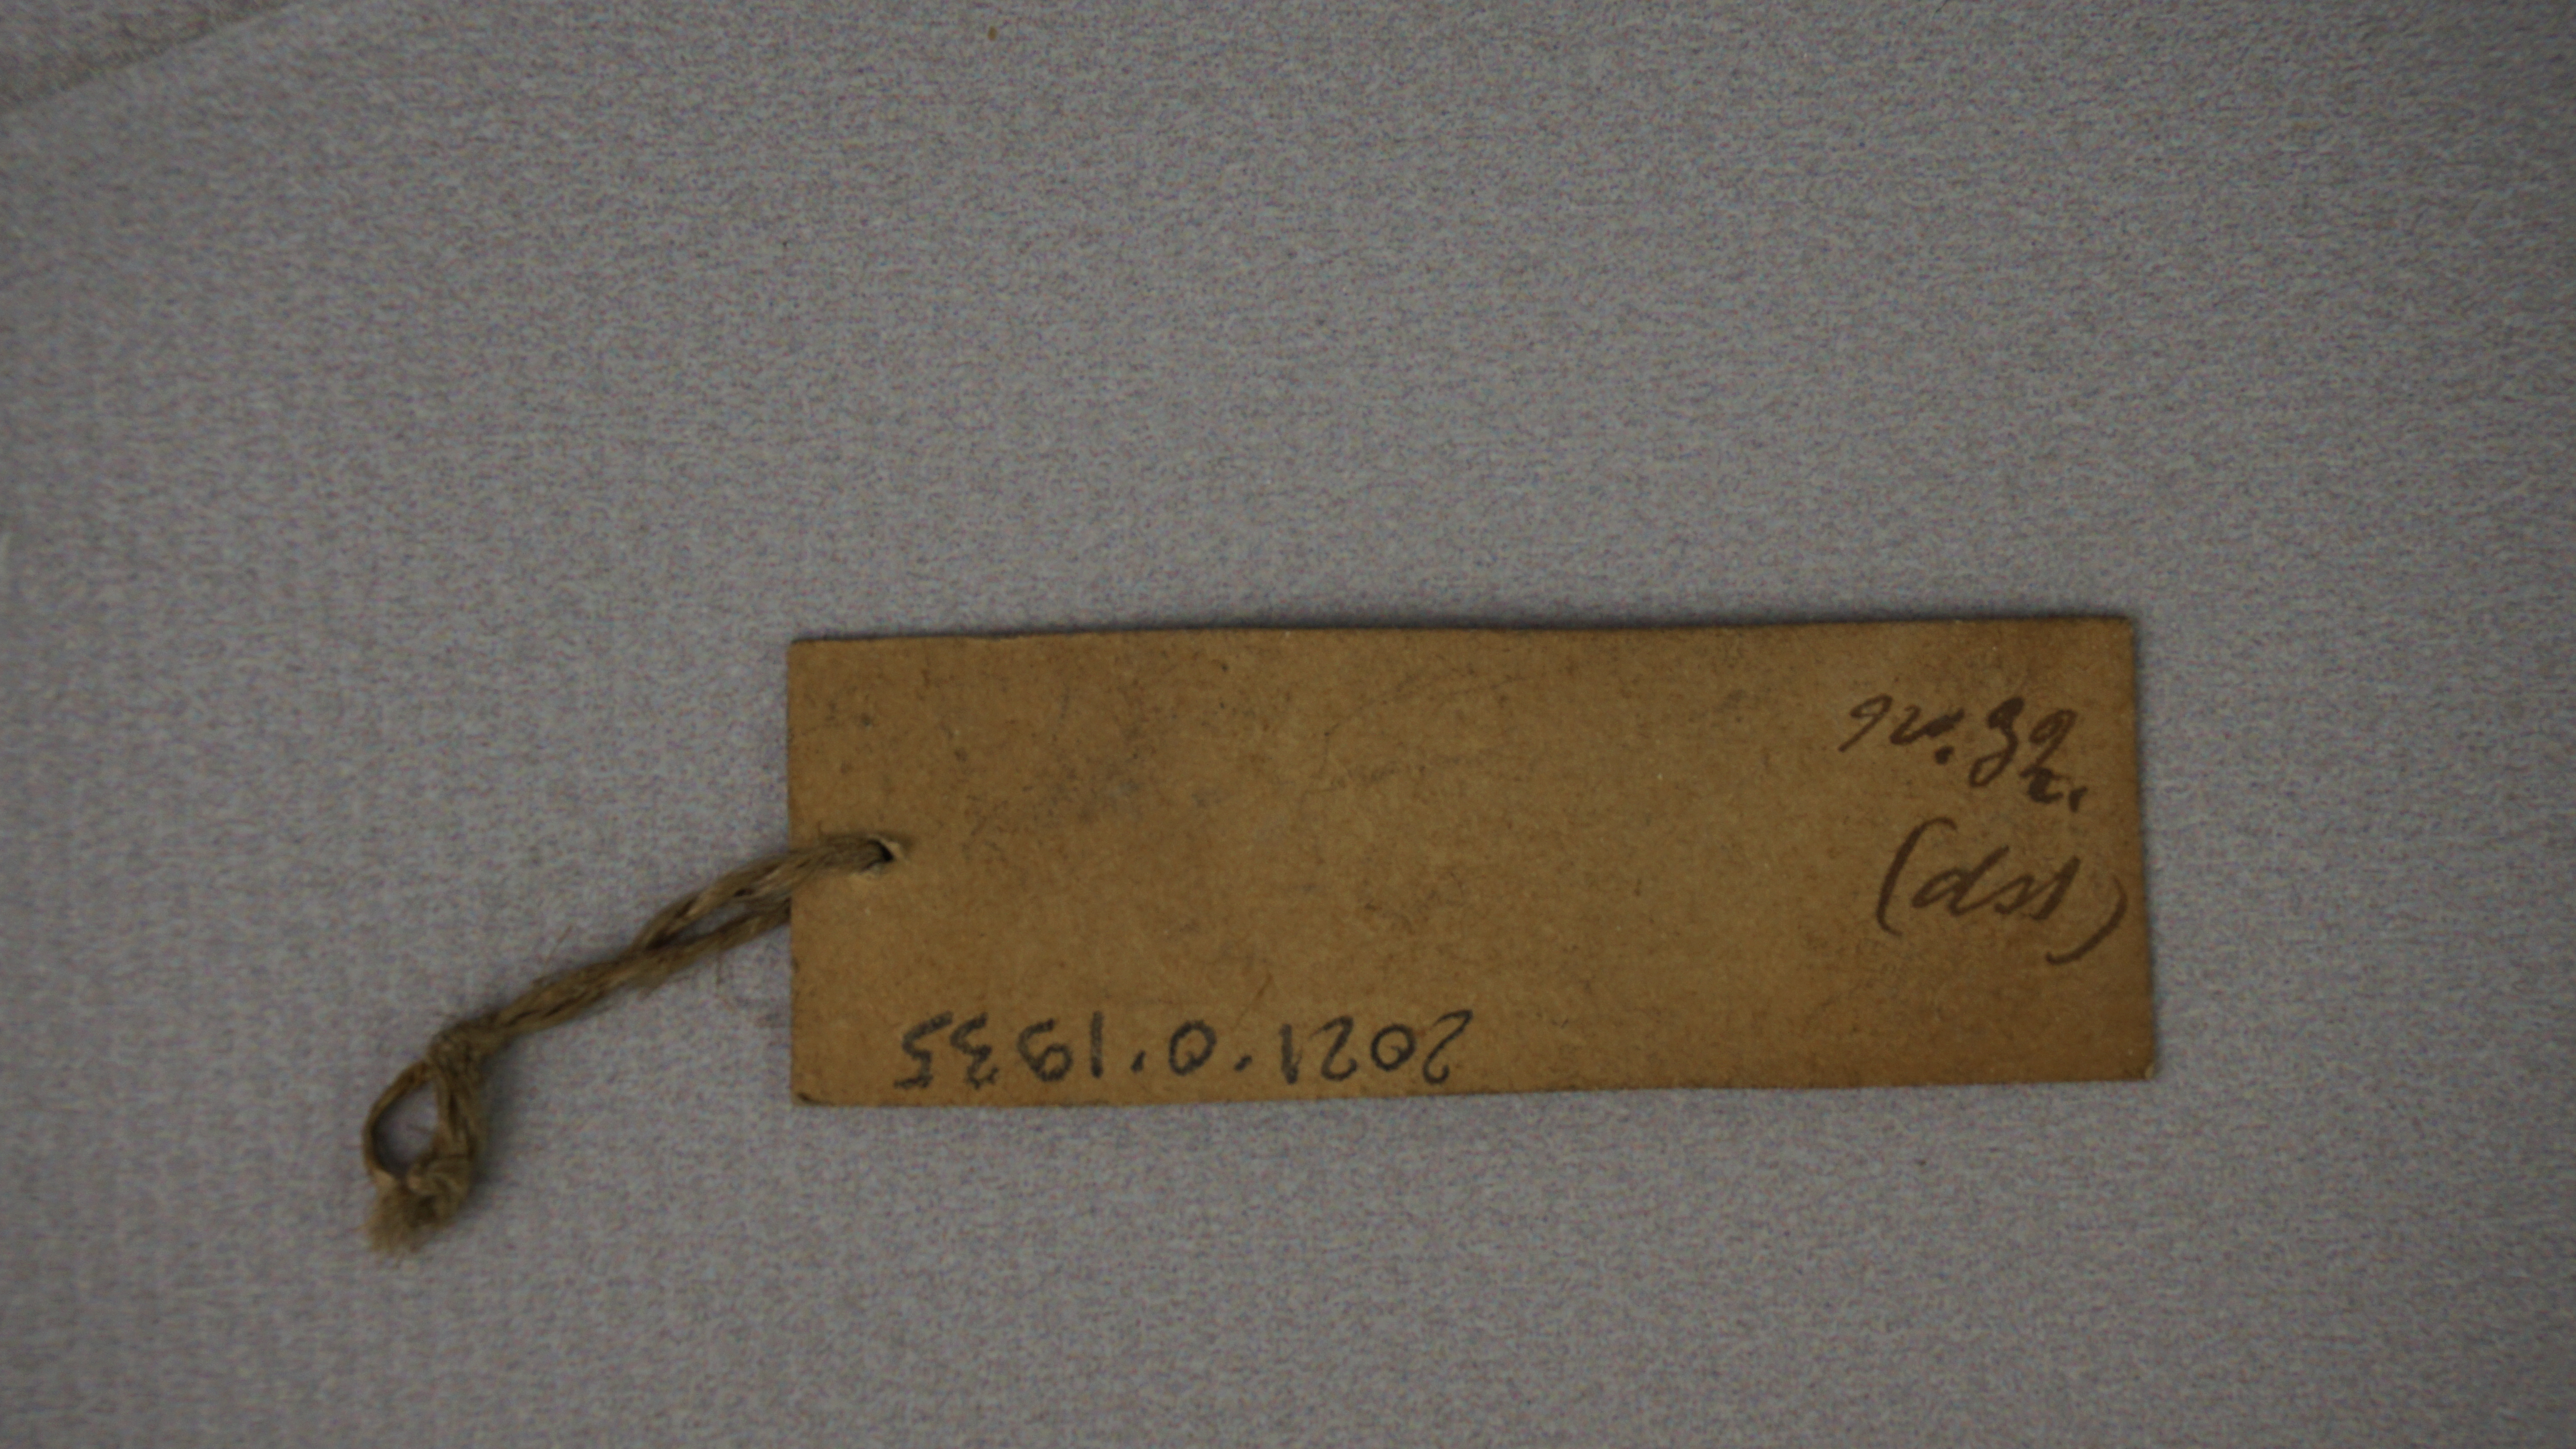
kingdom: Animalia
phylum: Chordata
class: Aves
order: Passeriformes
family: Sturnidae
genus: Spodiopsar
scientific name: Spodiopsar sericeus
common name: Red-billed starling
